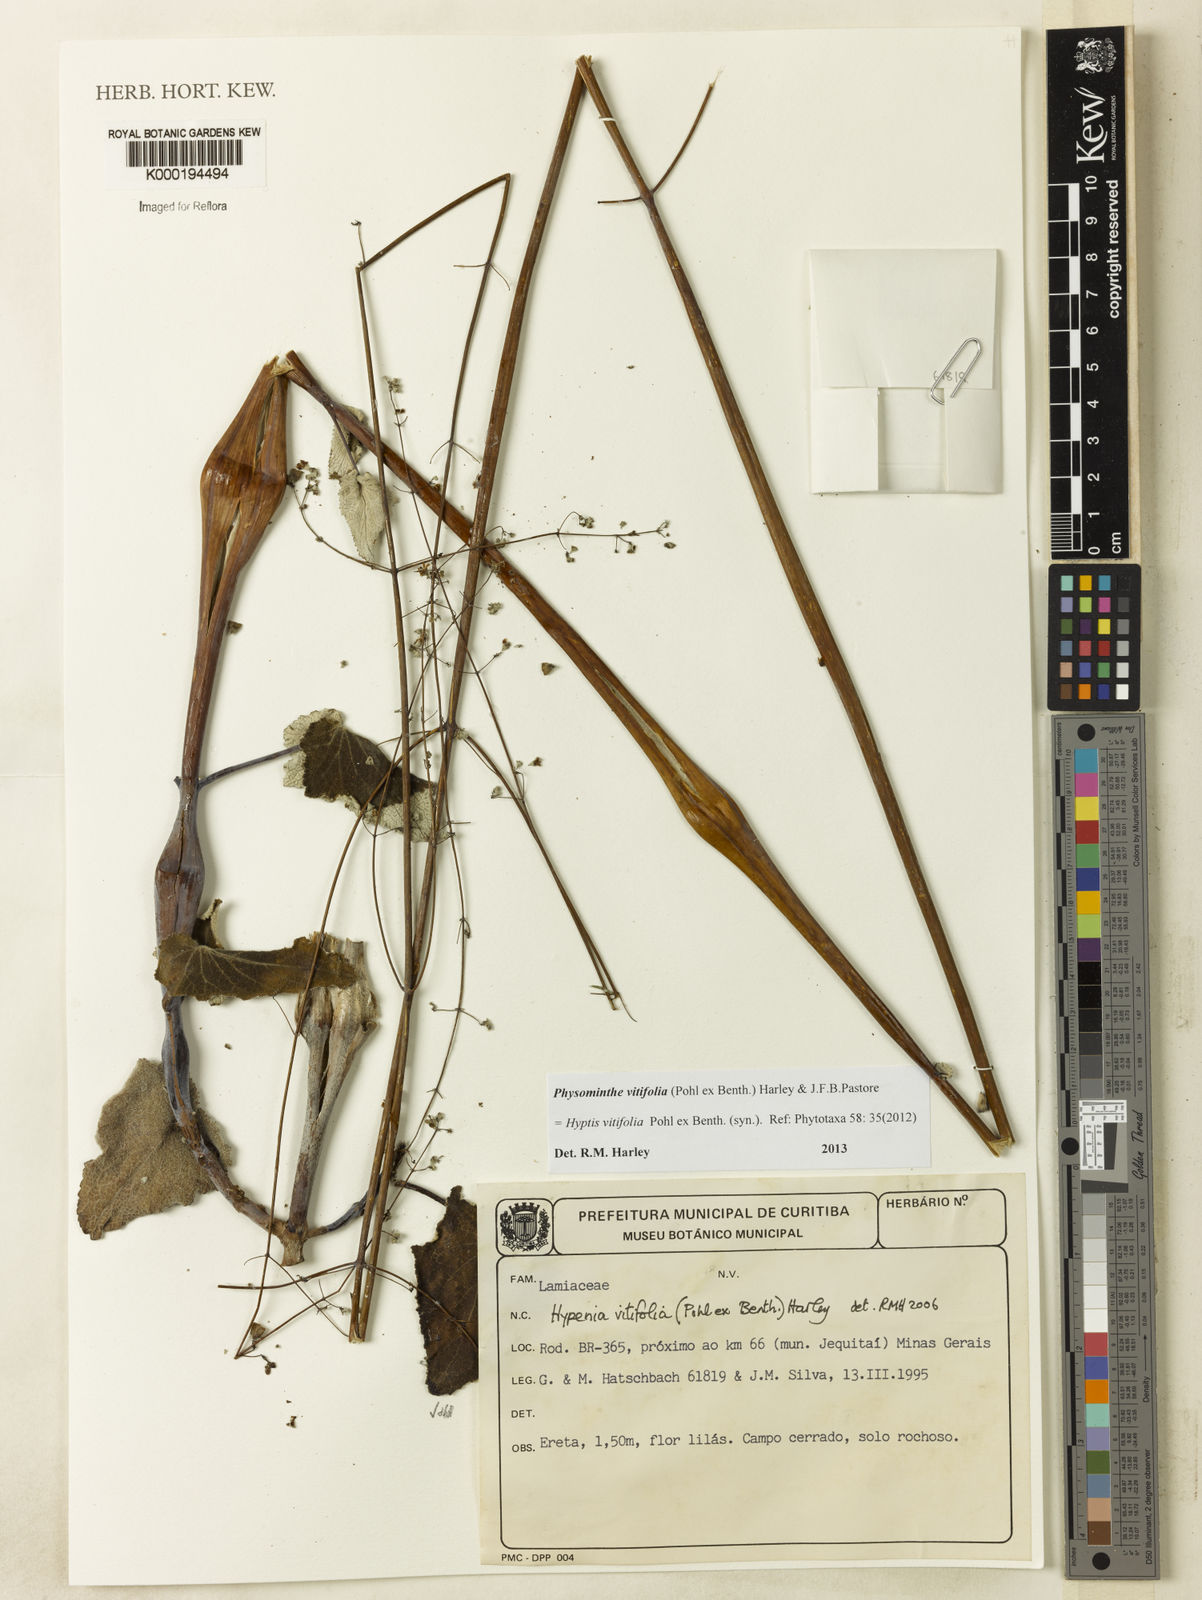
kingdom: Plantae
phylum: Tracheophyta
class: Magnoliopsida
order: Lamiales
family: Lamiaceae
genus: Physominthe
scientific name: Physominthe vitifolia
